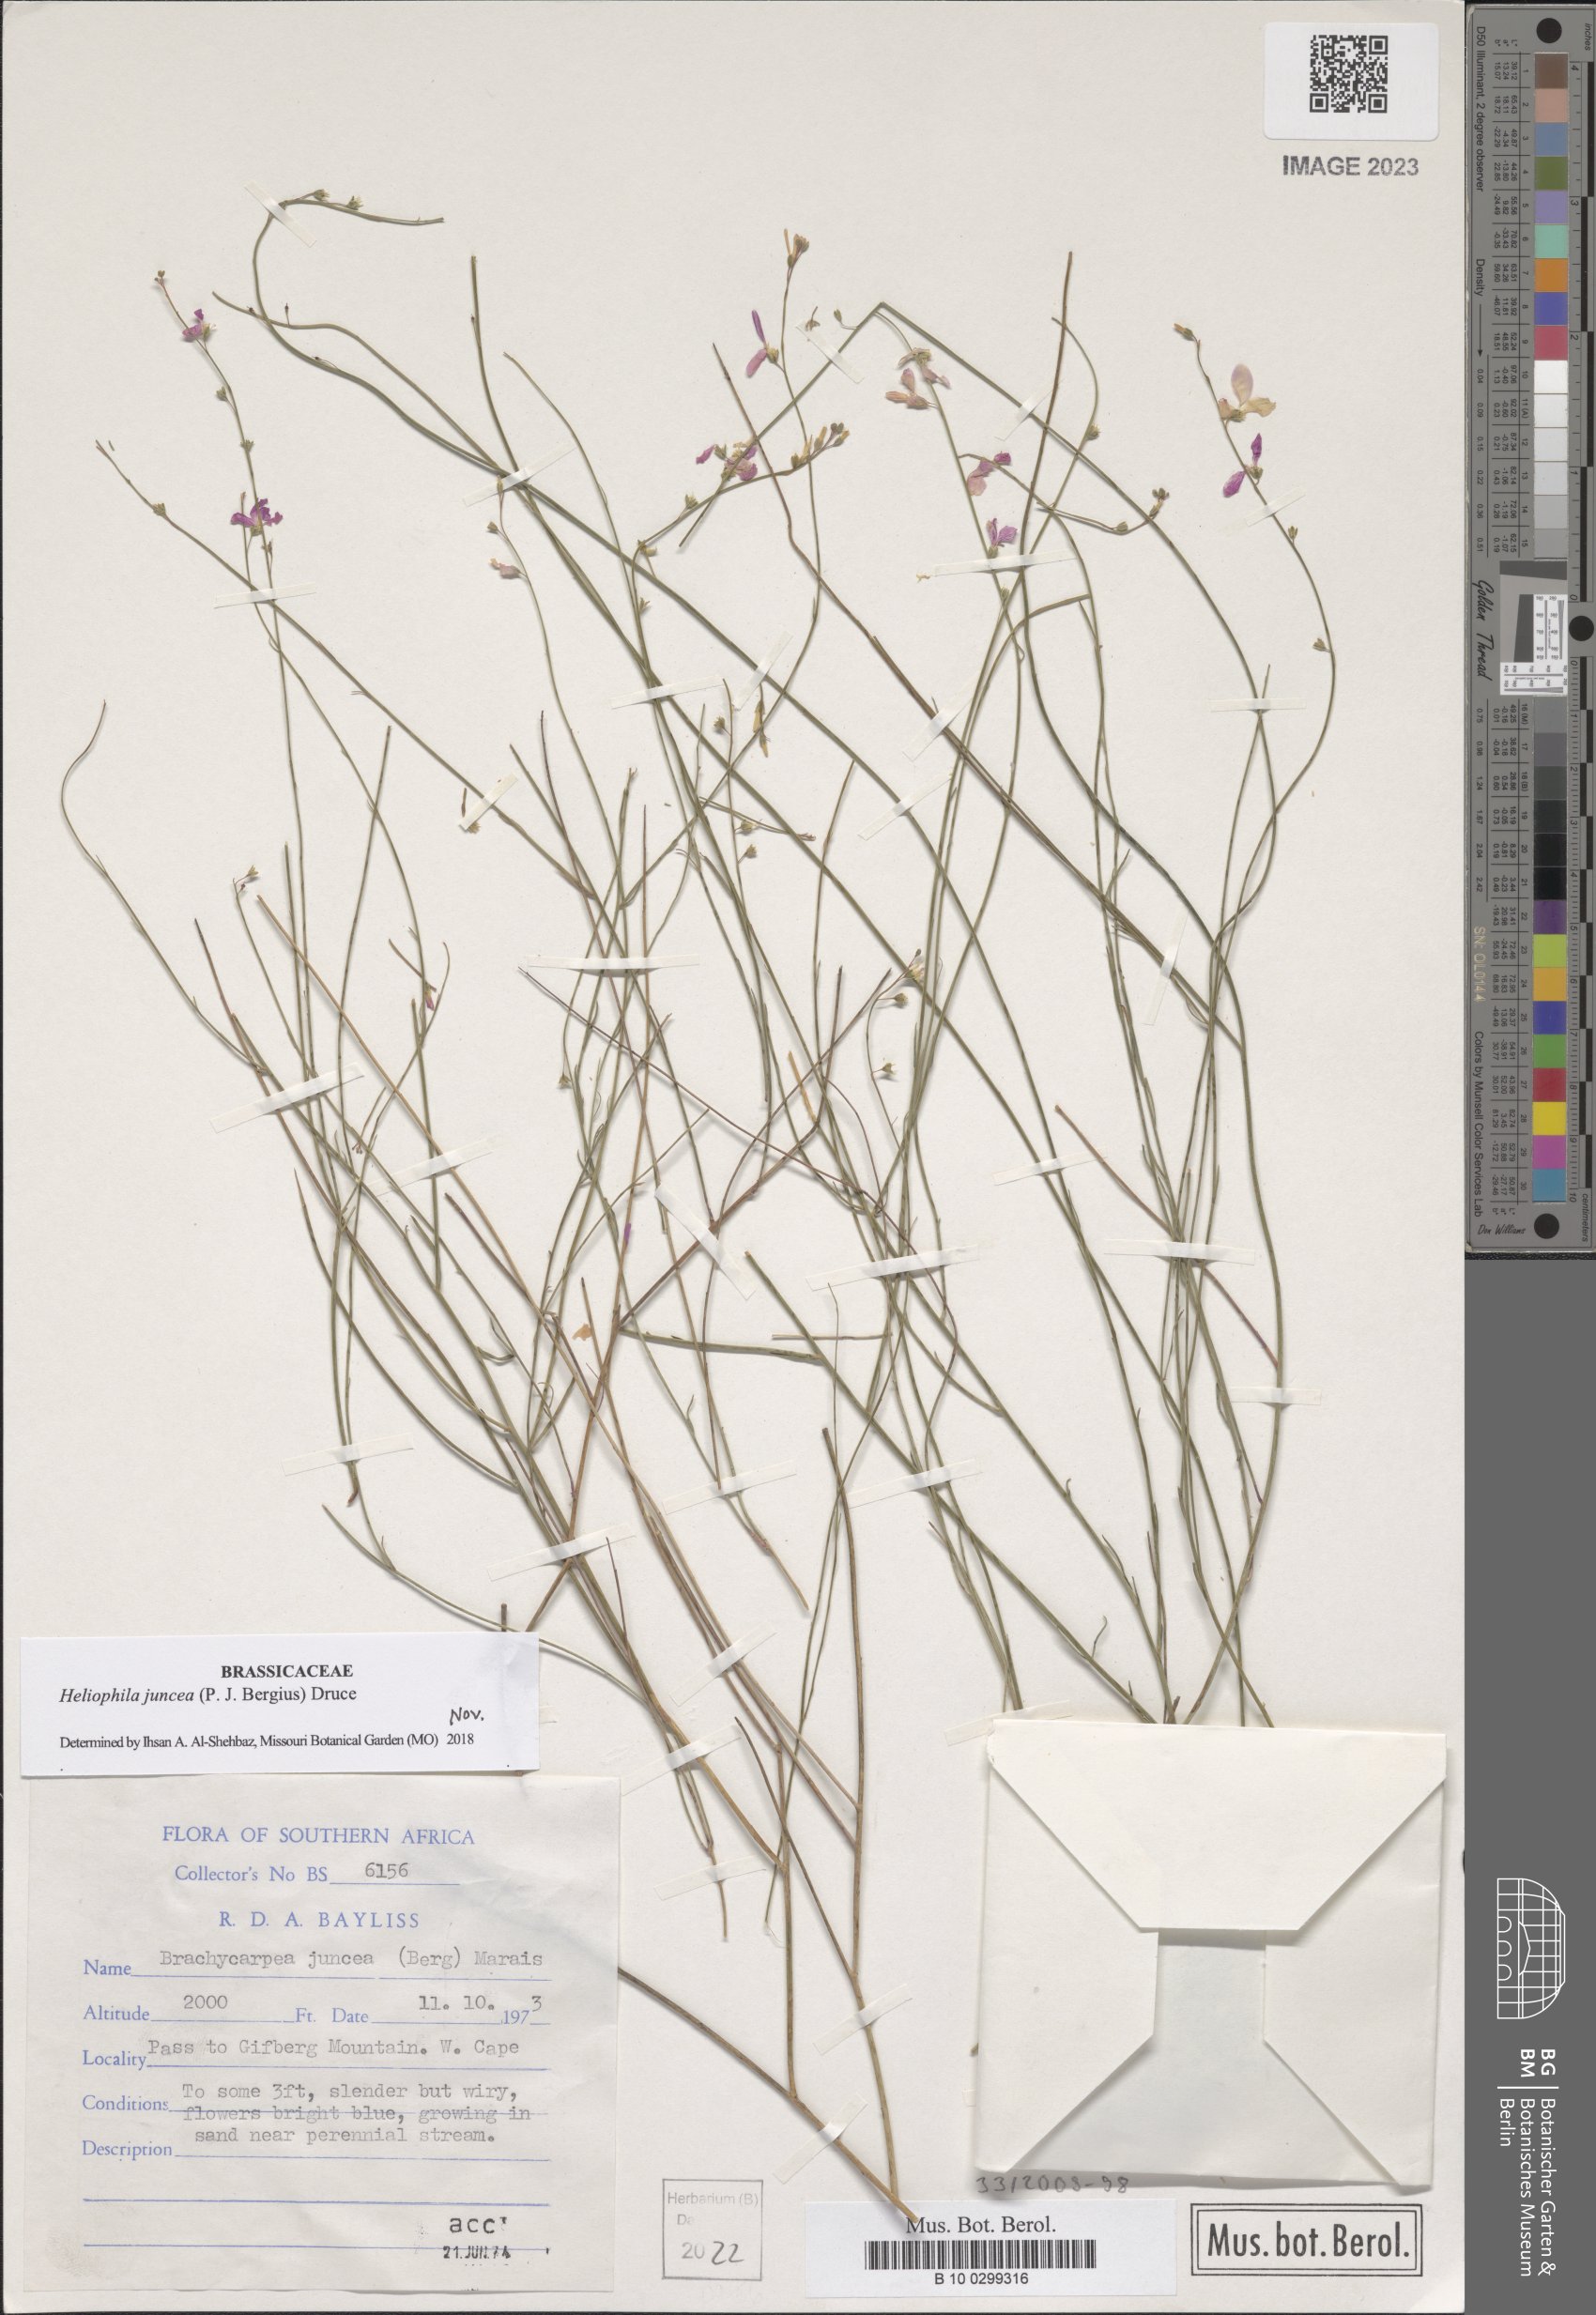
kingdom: Plantae
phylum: Tracheophyta
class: Magnoliopsida
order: Brassicales
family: Brassicaceae
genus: Heliophila
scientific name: Heliophila juncea
